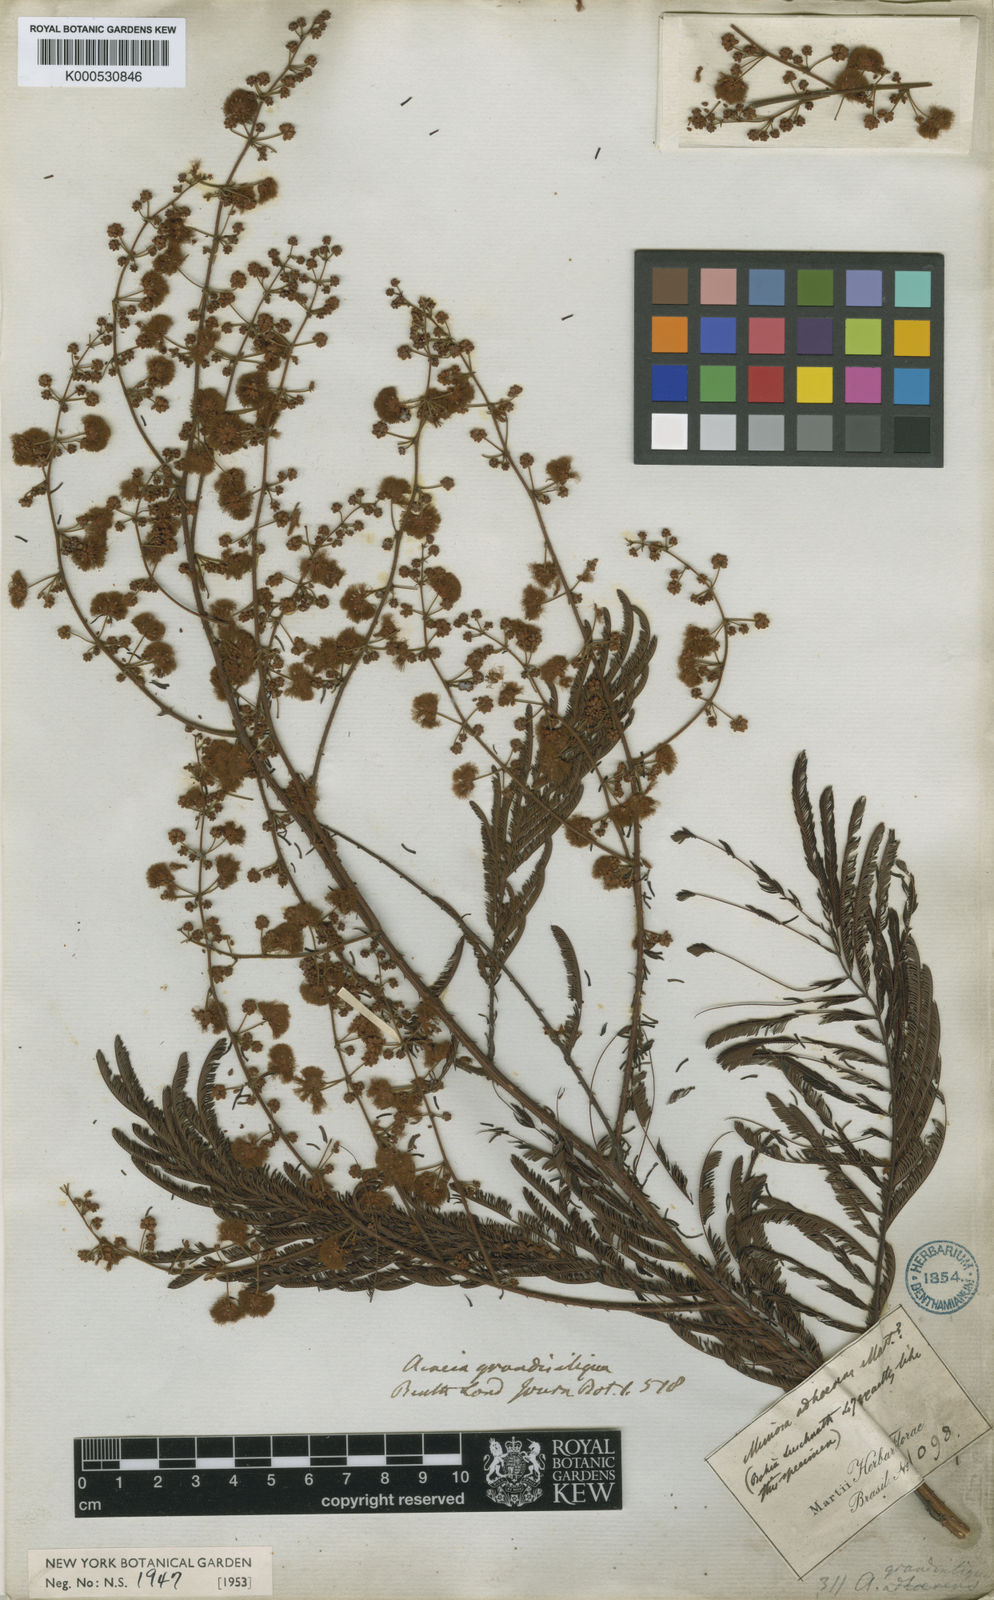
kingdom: Plantae
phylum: Tracheophyta
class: Magnoliopsida
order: Fabales
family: Fabaceae
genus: Senegalia
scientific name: Senegalia martiusiana
